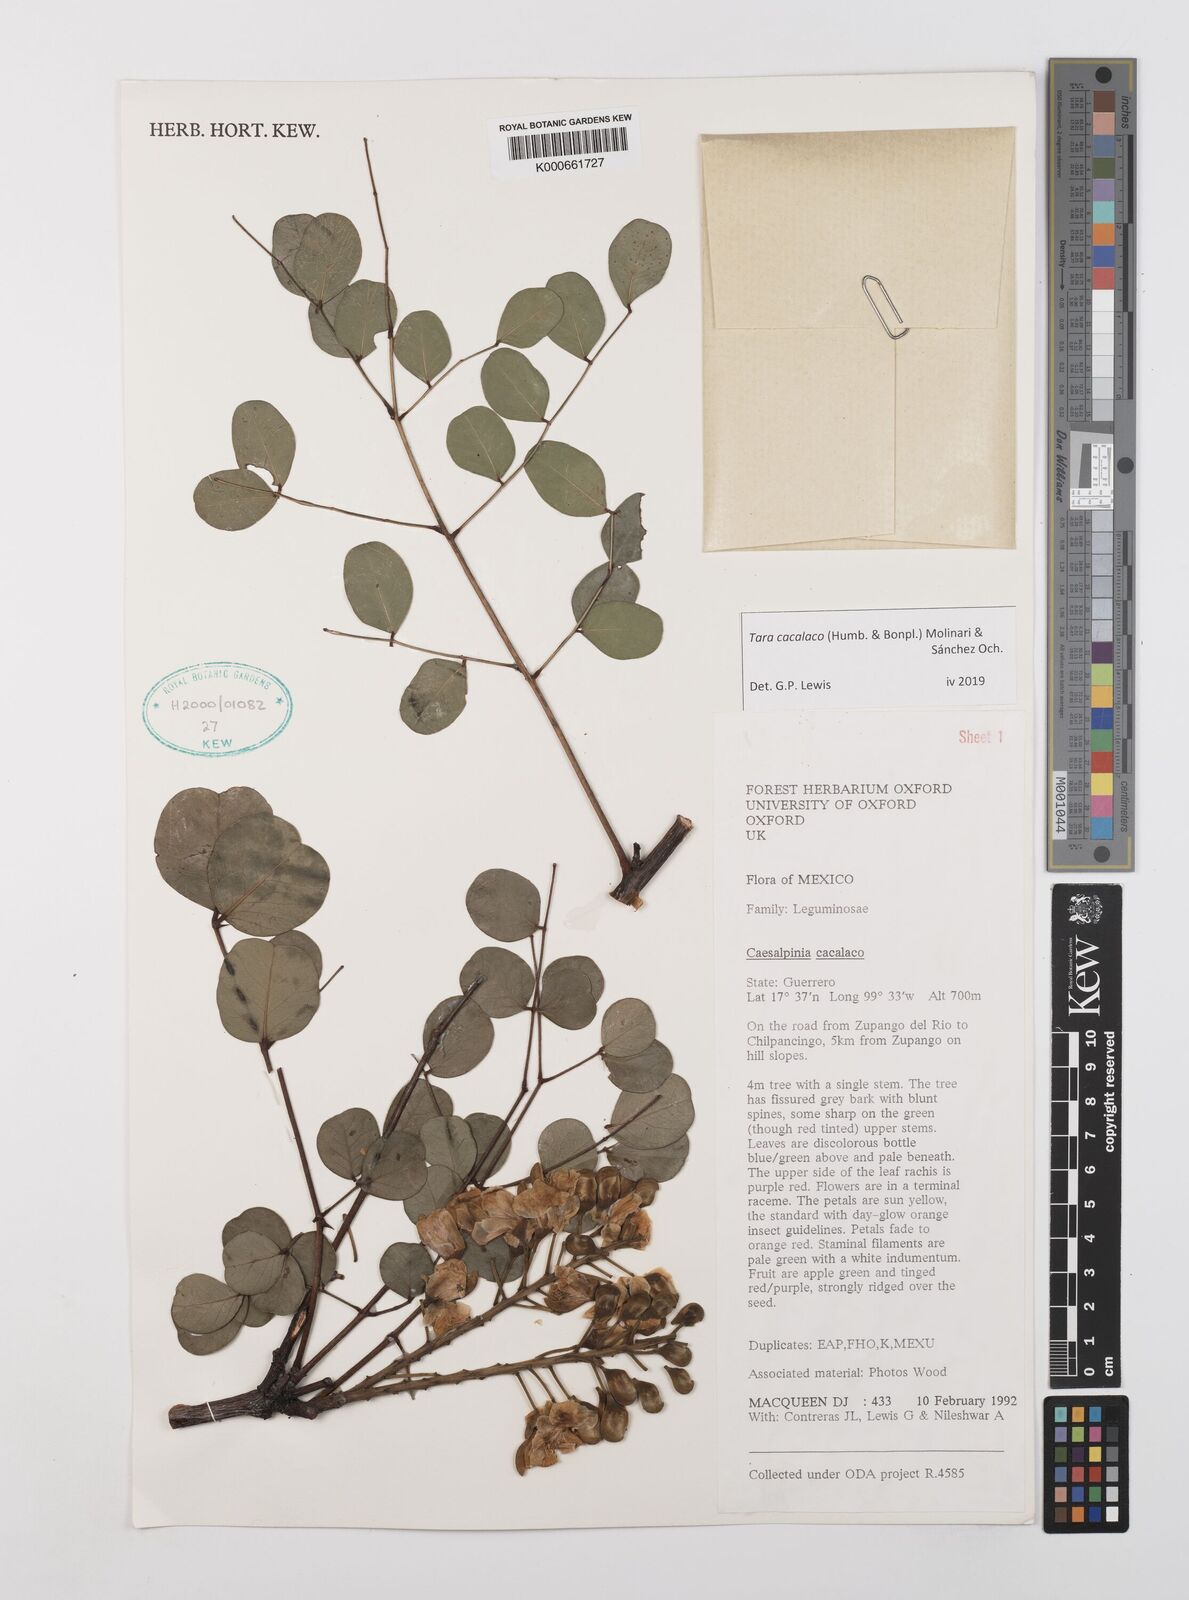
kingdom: Plantae
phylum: Tracheophyta
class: Magnoliopsida
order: Fabales
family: Fabaceae
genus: Tara
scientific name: Tara cacalaco
